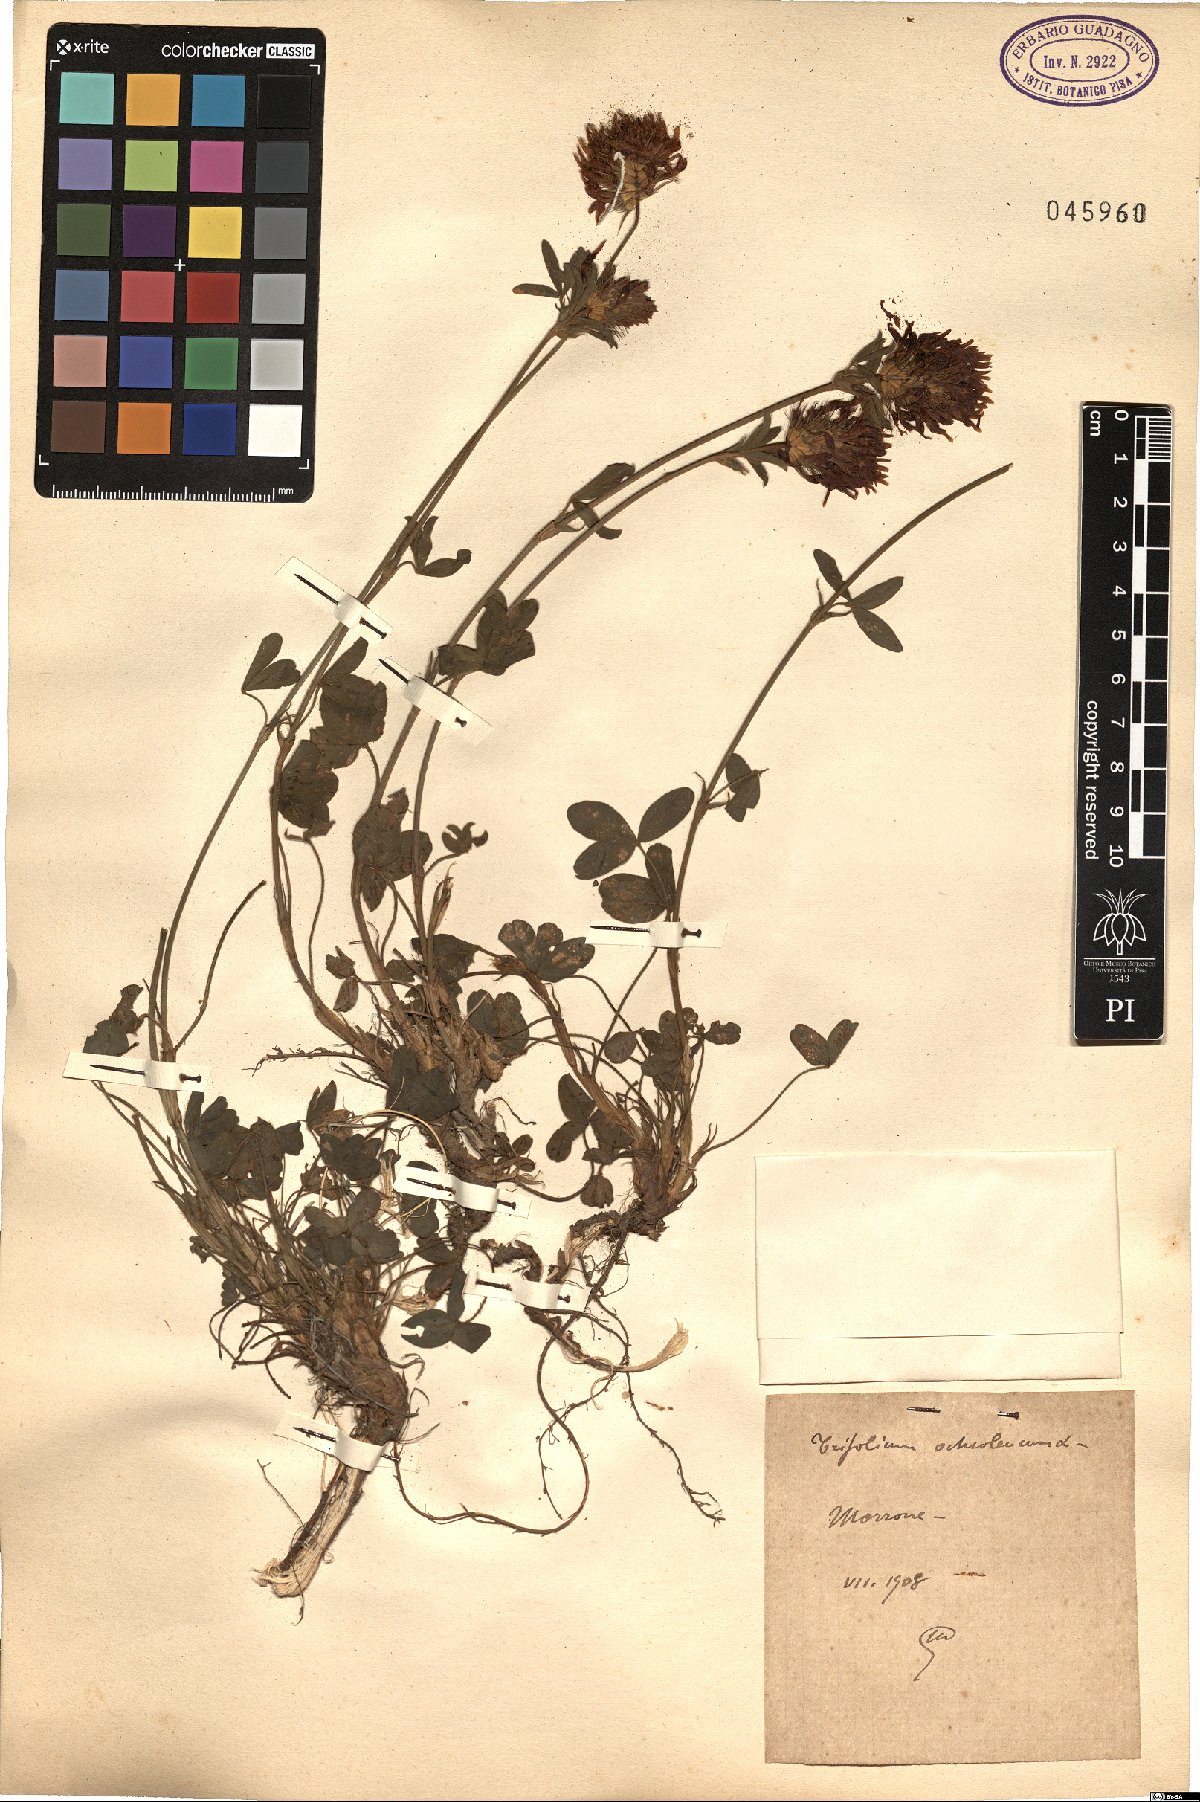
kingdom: Plantae
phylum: Tracheophyta
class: Magnoliopsida
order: Fabales
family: Fabaceae
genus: Trifolium
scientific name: Trifolium ochroleucon
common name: Sulphur clover
